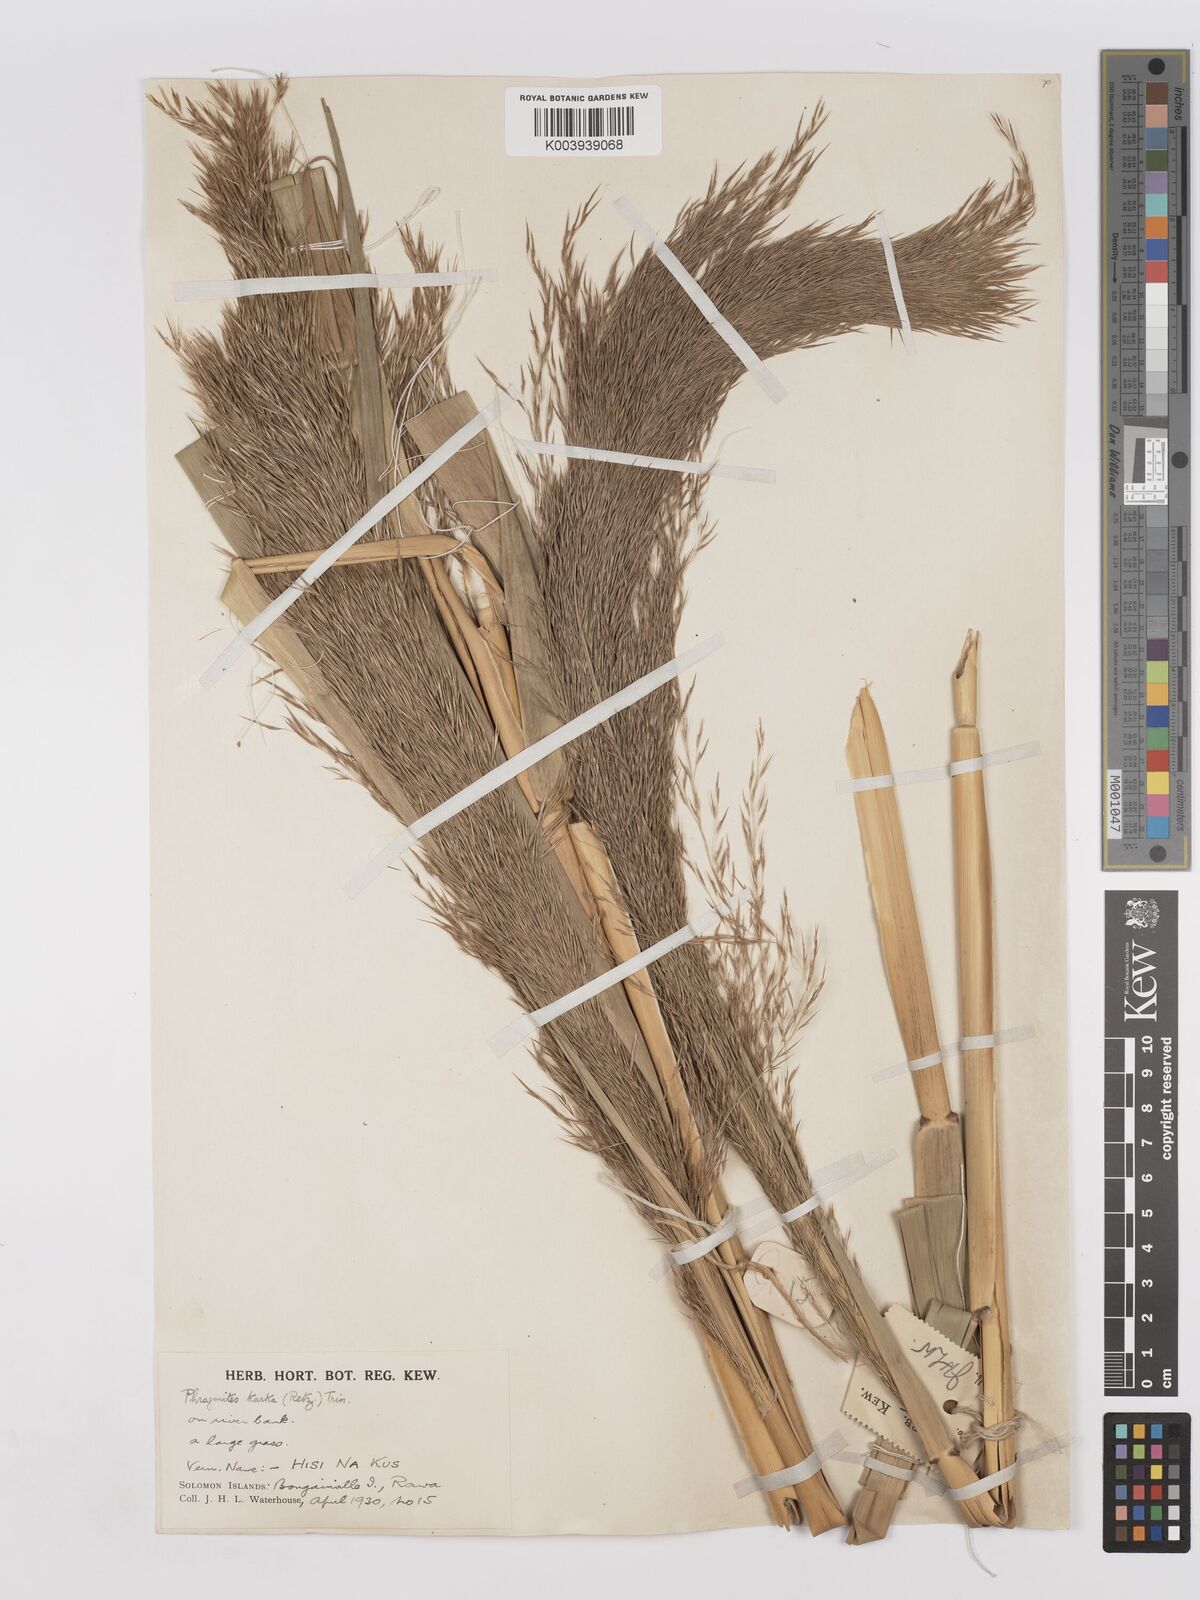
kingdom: Plantae
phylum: Tracheophyta
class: Liliopsida
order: Poales
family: Poaceae
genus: Phragmites
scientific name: Phragmites karka
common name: Tropical reed
